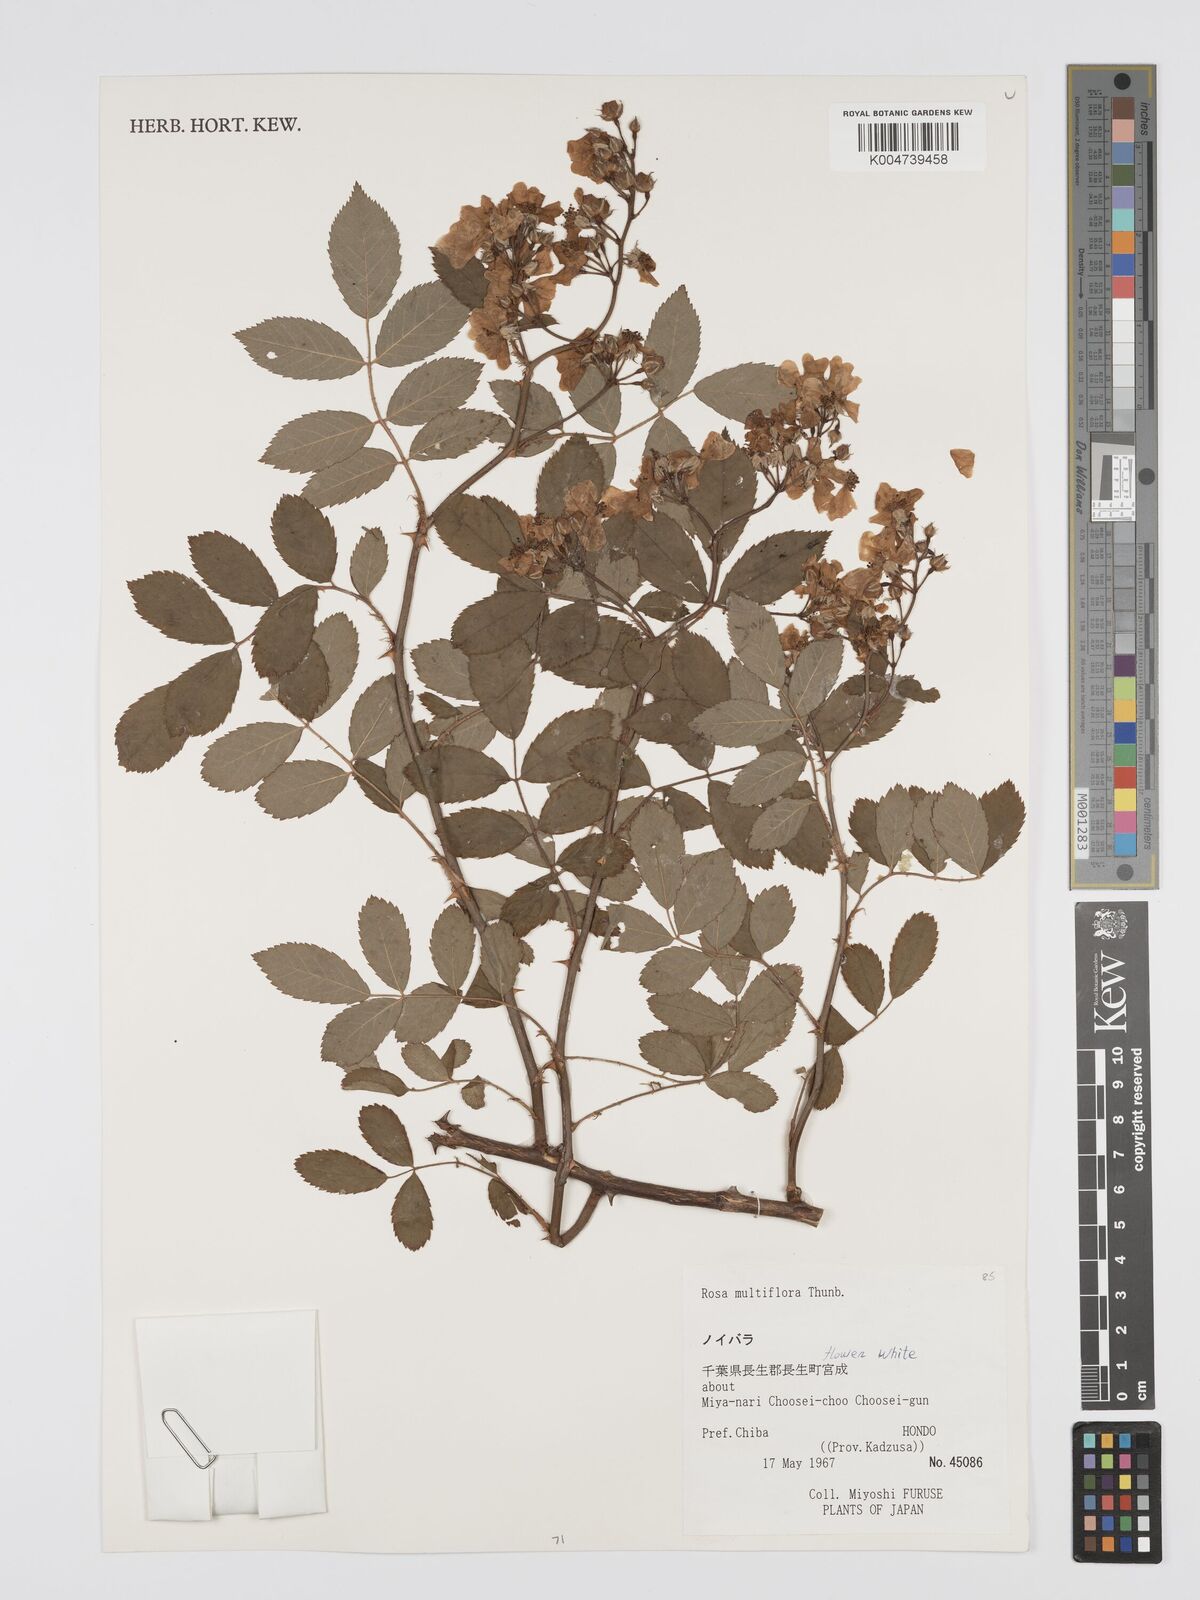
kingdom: Plantae
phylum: Tracheophyta
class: Magnoliopsida
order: Rosales
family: Rosaceae
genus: Rosa
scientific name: Rosa
